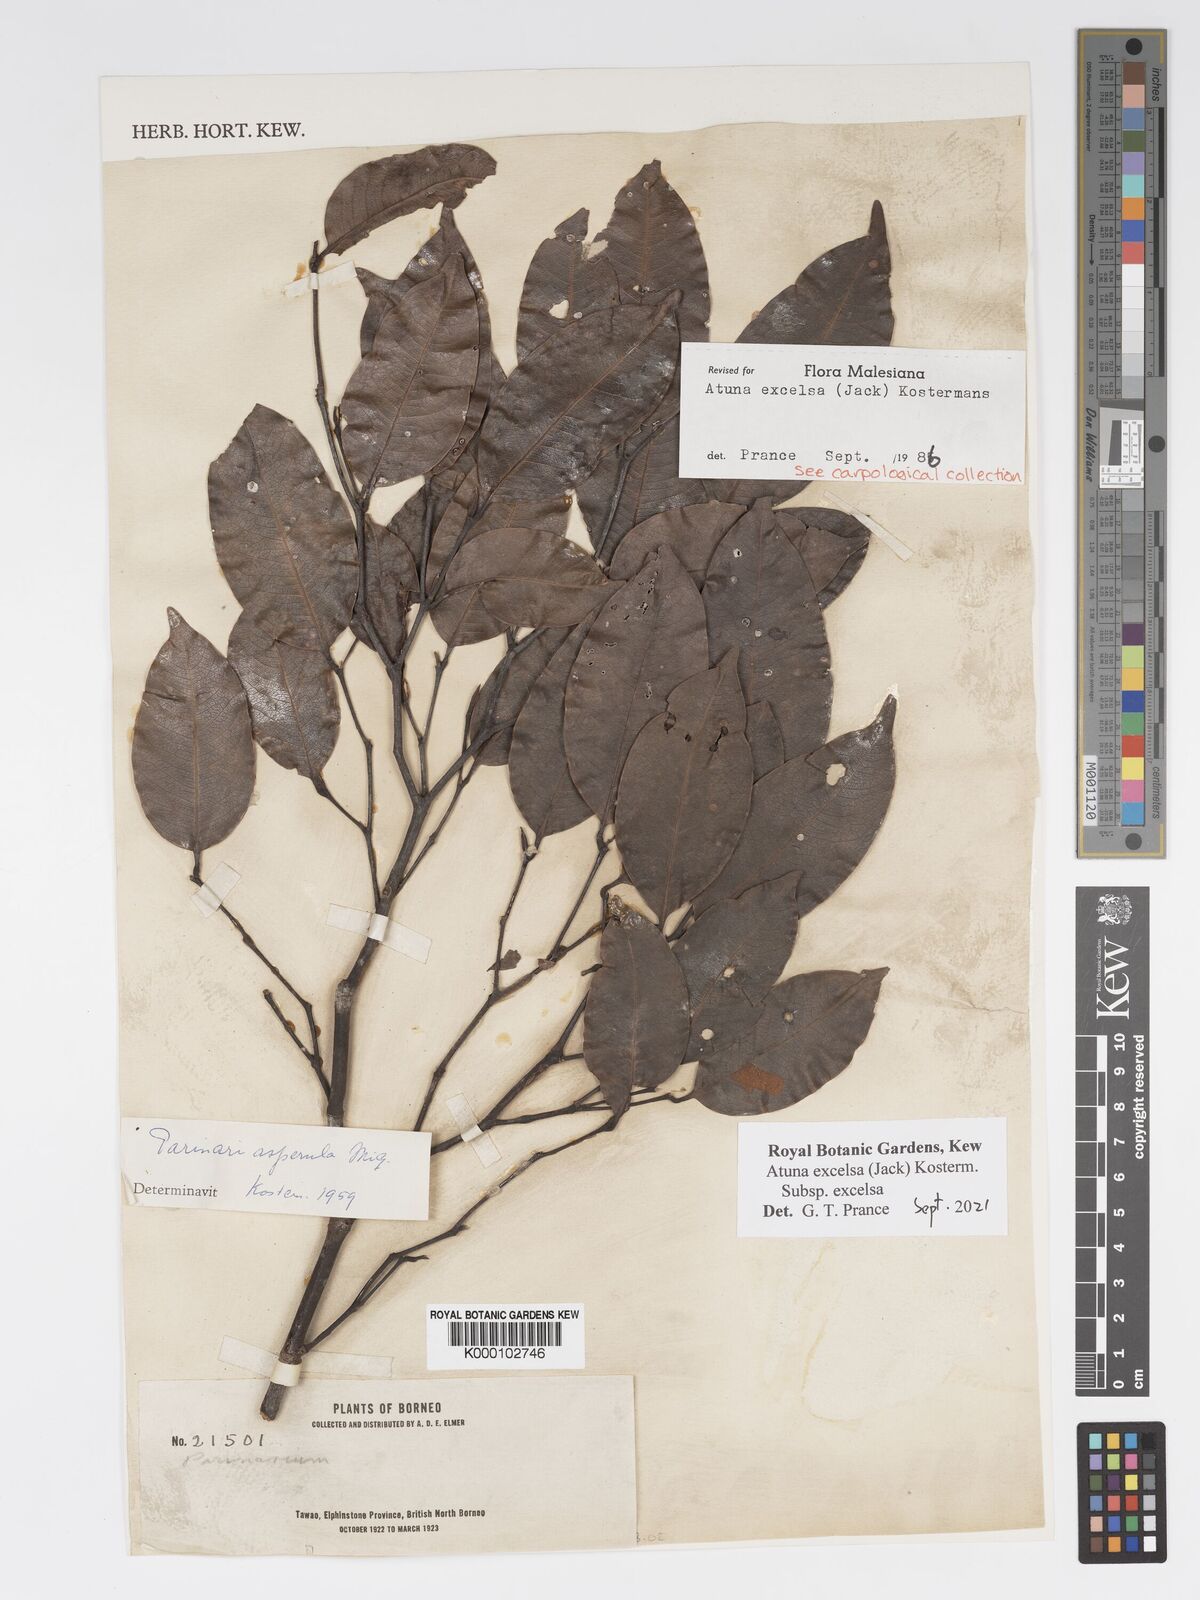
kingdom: Plantae
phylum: Tracheophyta
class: Magnoliopsida
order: Malpighiales
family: Chrysobalanaceae
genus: Atuna
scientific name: Atuna excelsa
